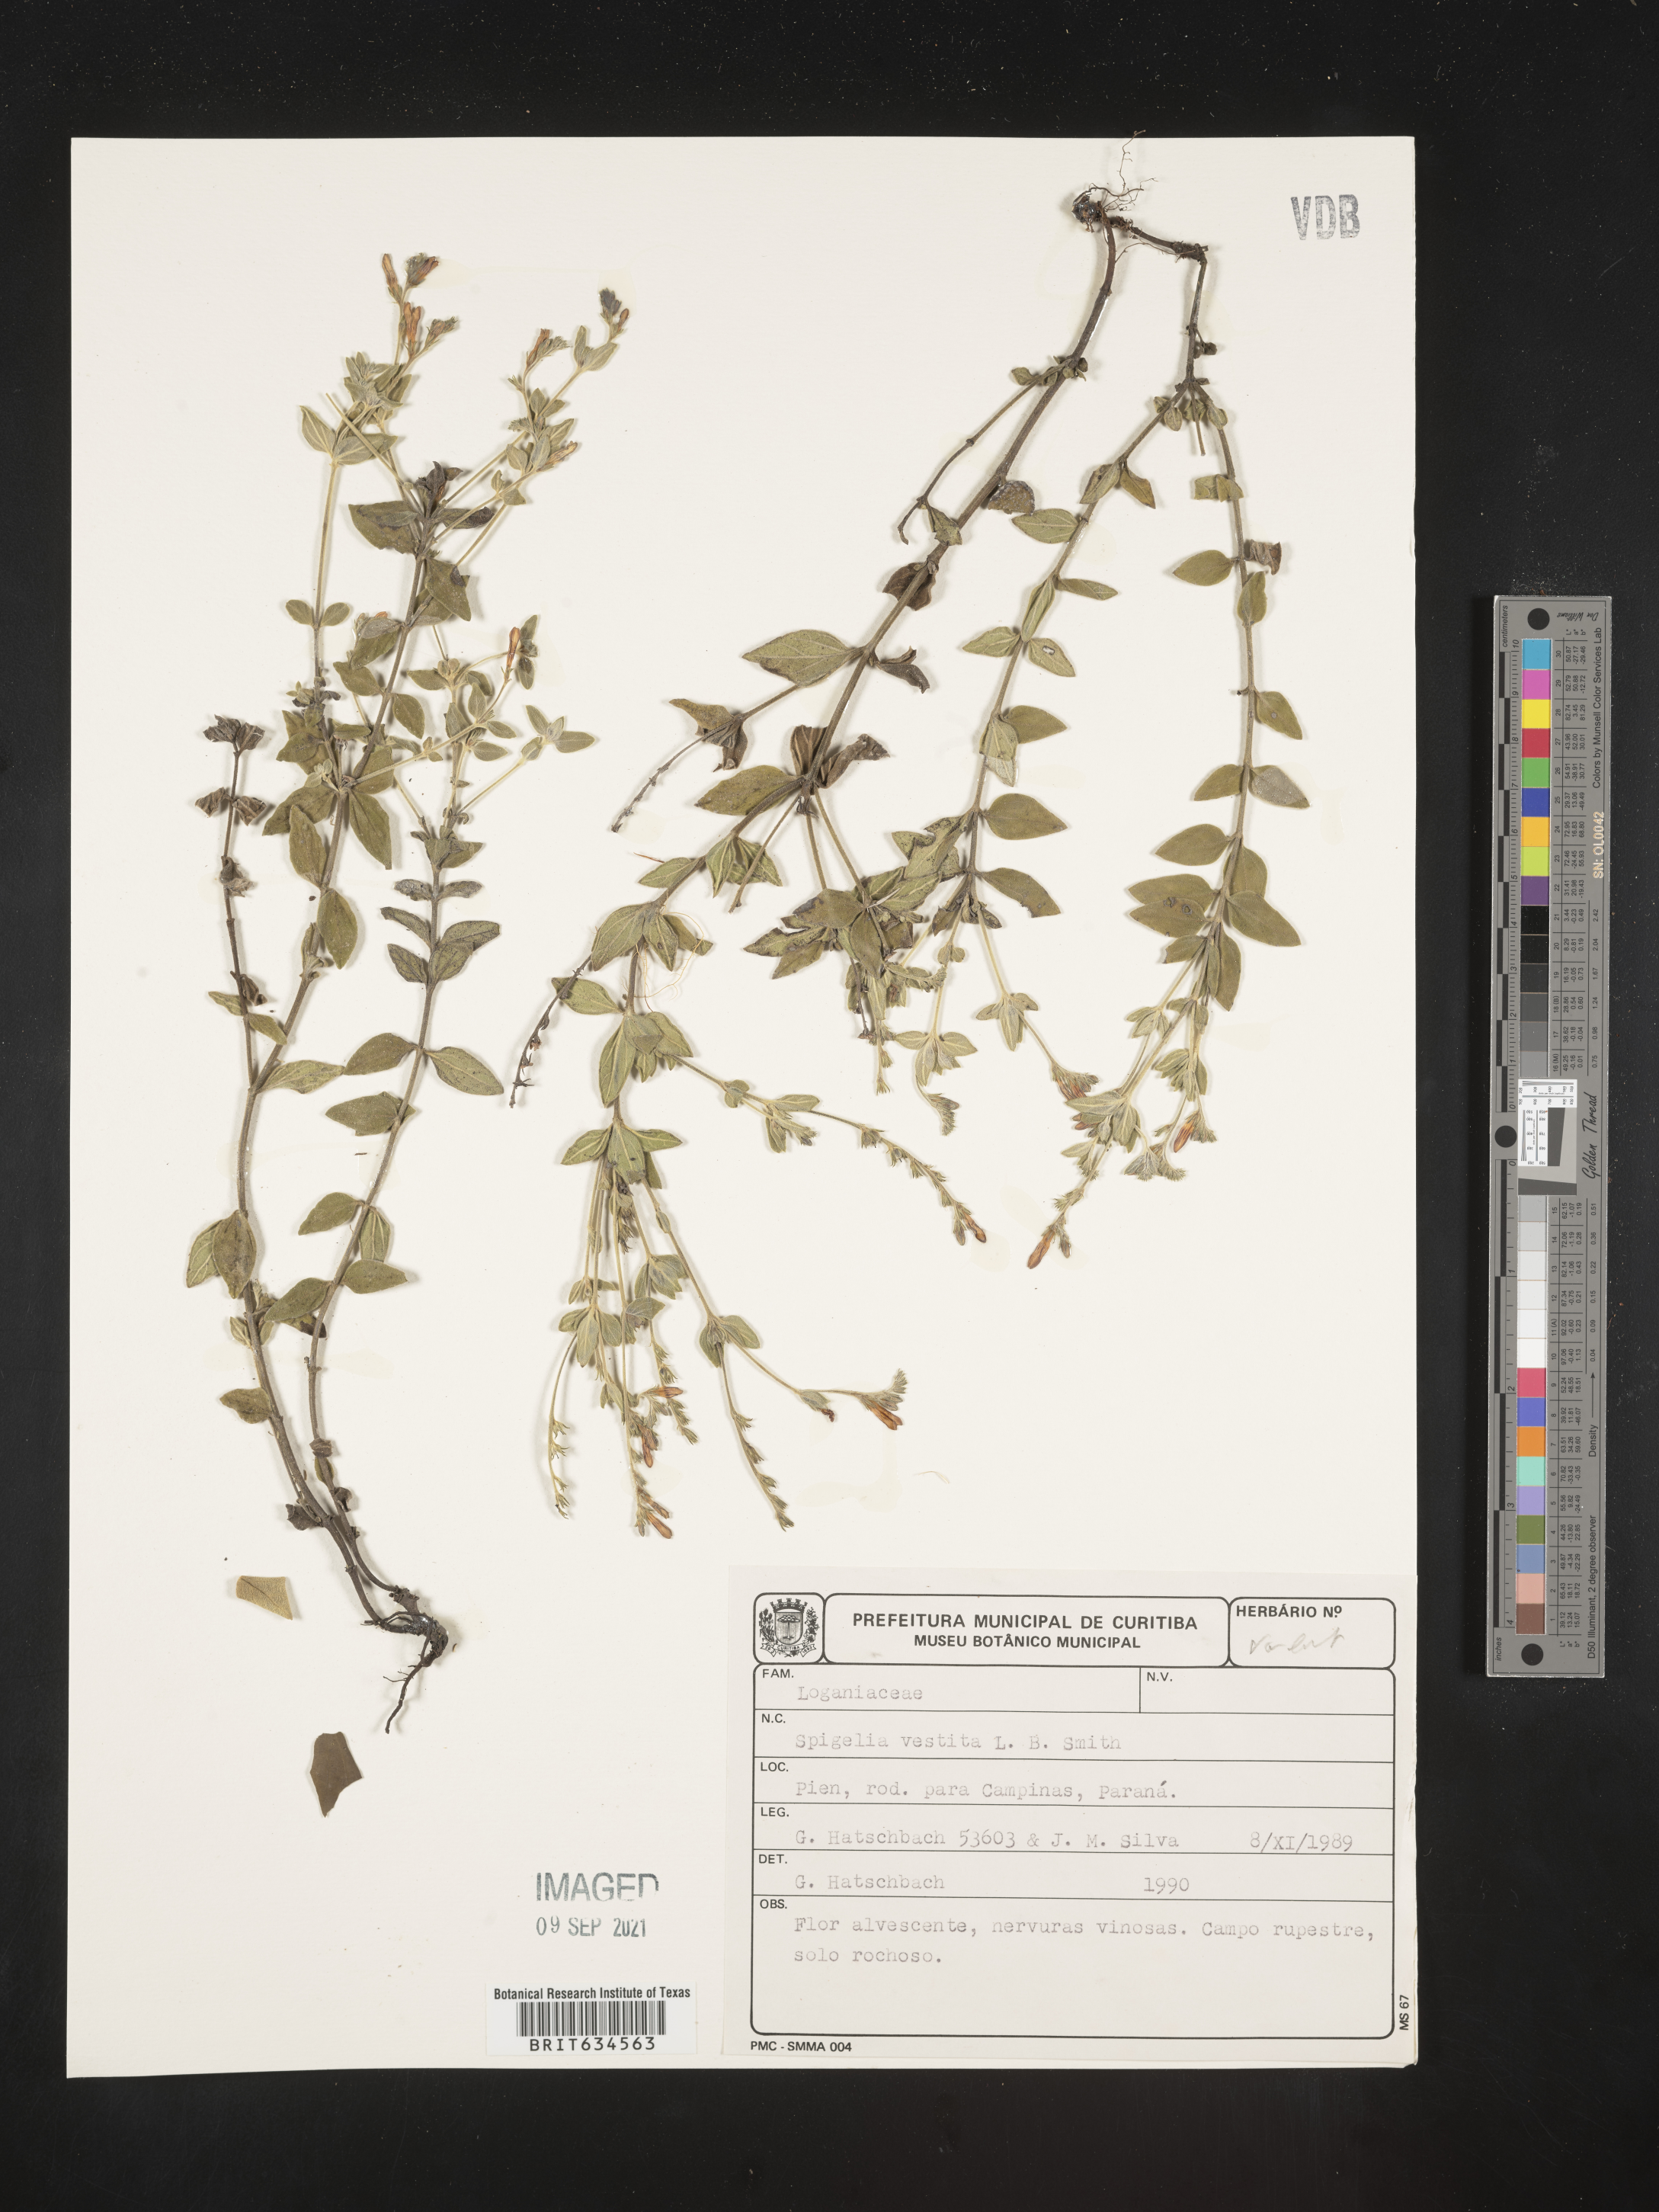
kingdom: Plantae
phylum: Tracheophyta
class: Magnoliopsida
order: Gentianales
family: Loganiaceae
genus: Spigelia
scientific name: Spigelia
